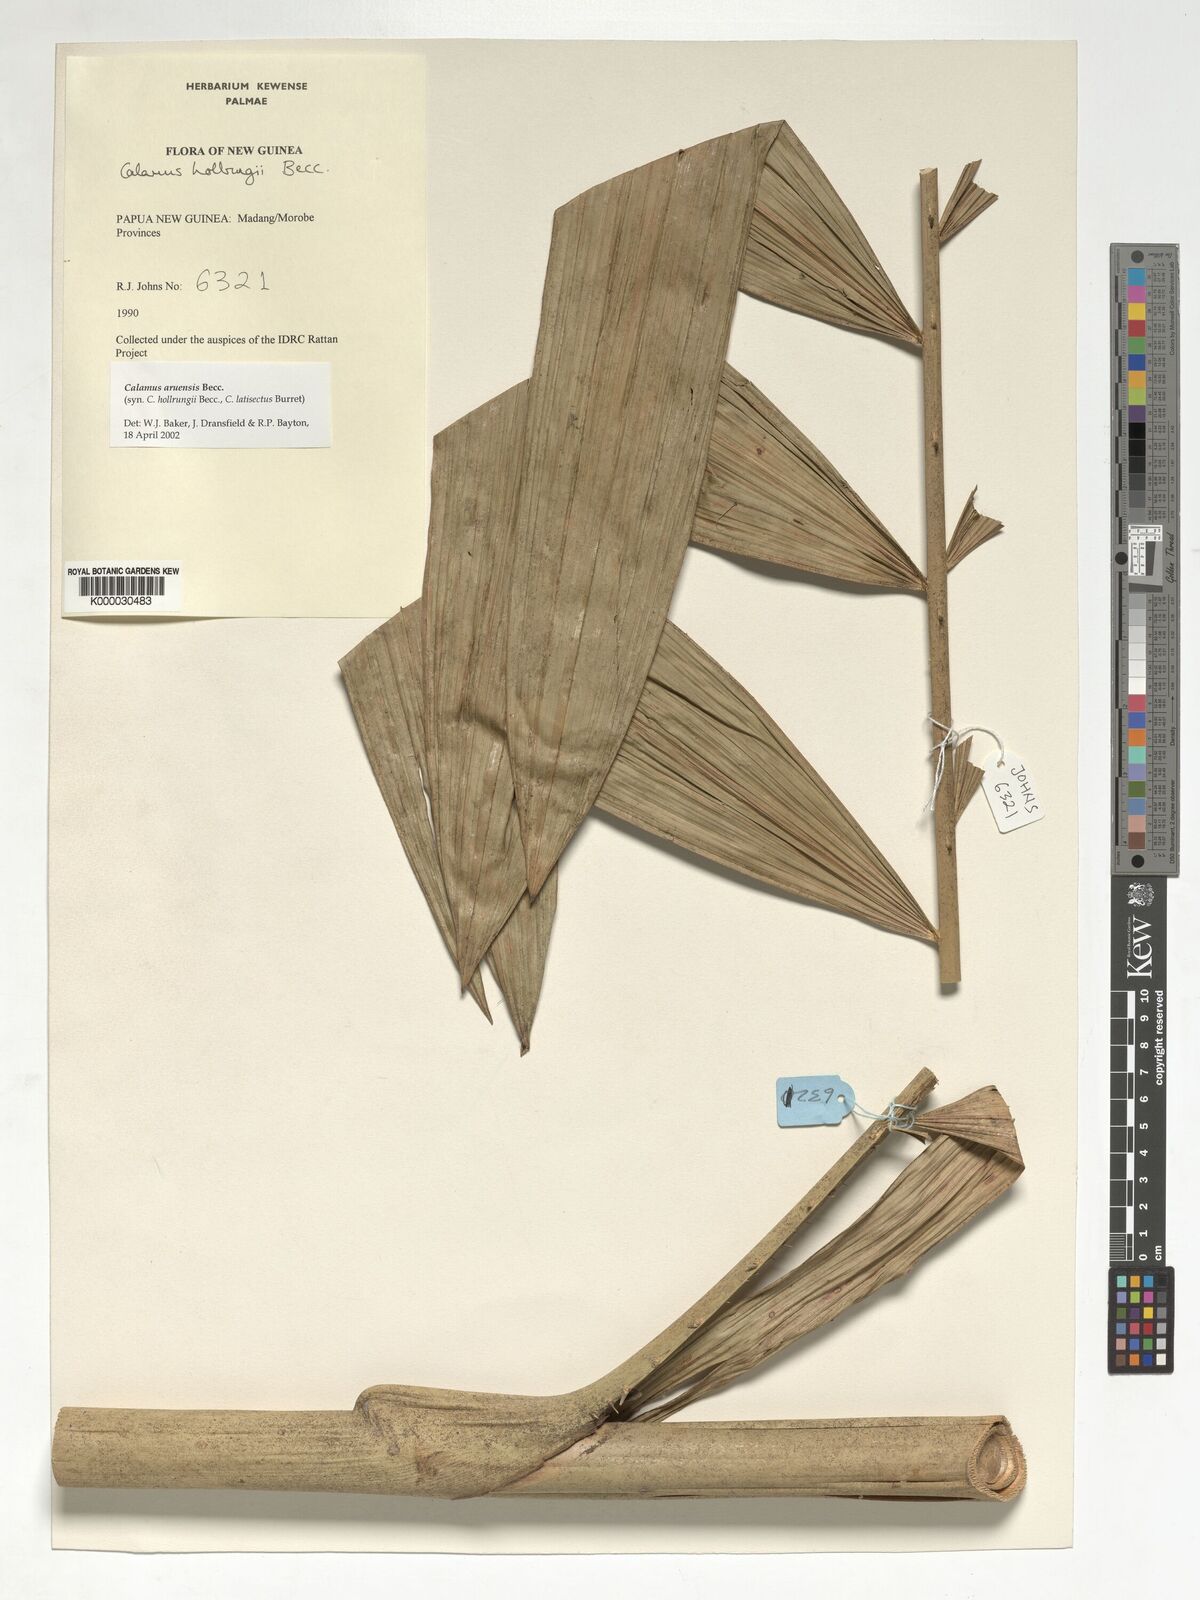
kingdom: Plantae
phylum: Tracheophyta
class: Liliopsida
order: Arecales
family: Arecaceae
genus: Calamus
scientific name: Calamus aruensis
